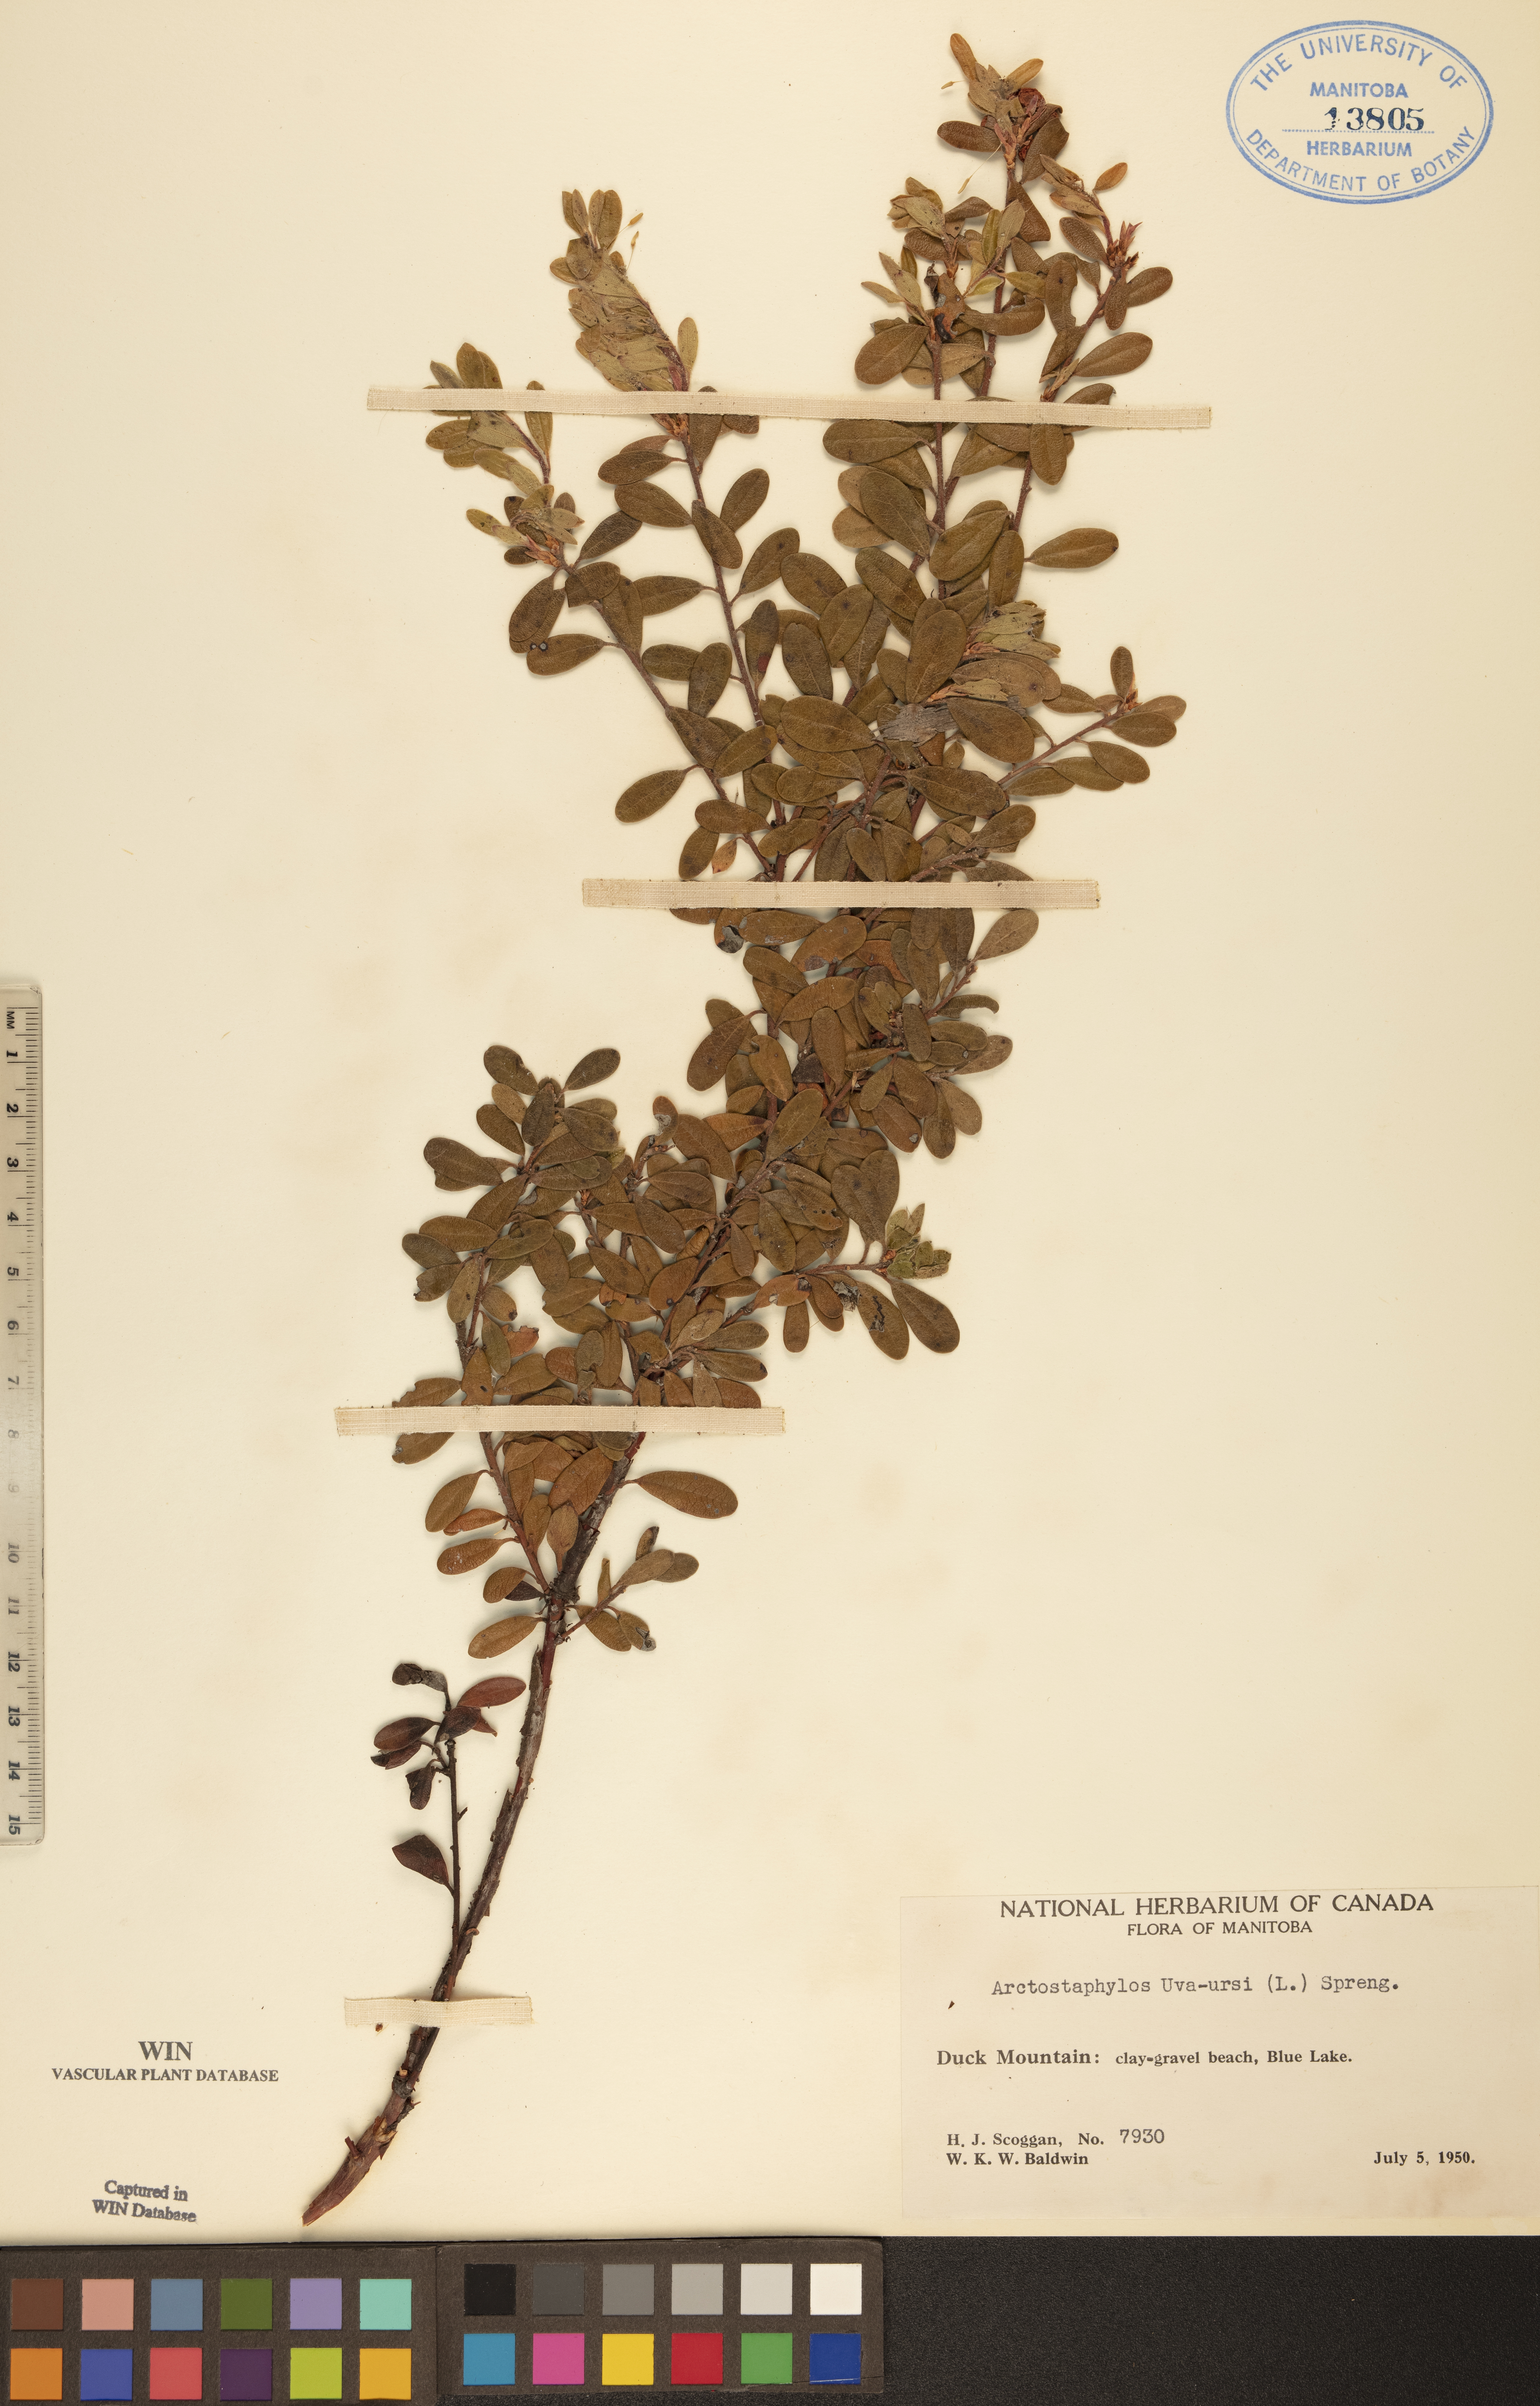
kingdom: Plantae
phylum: Tracheophyta
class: Magnoliopsida
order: Ericales
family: Ericaceae
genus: Arctostaphylos
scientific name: Arctostaphylos uva-ursi
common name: Bearberry
